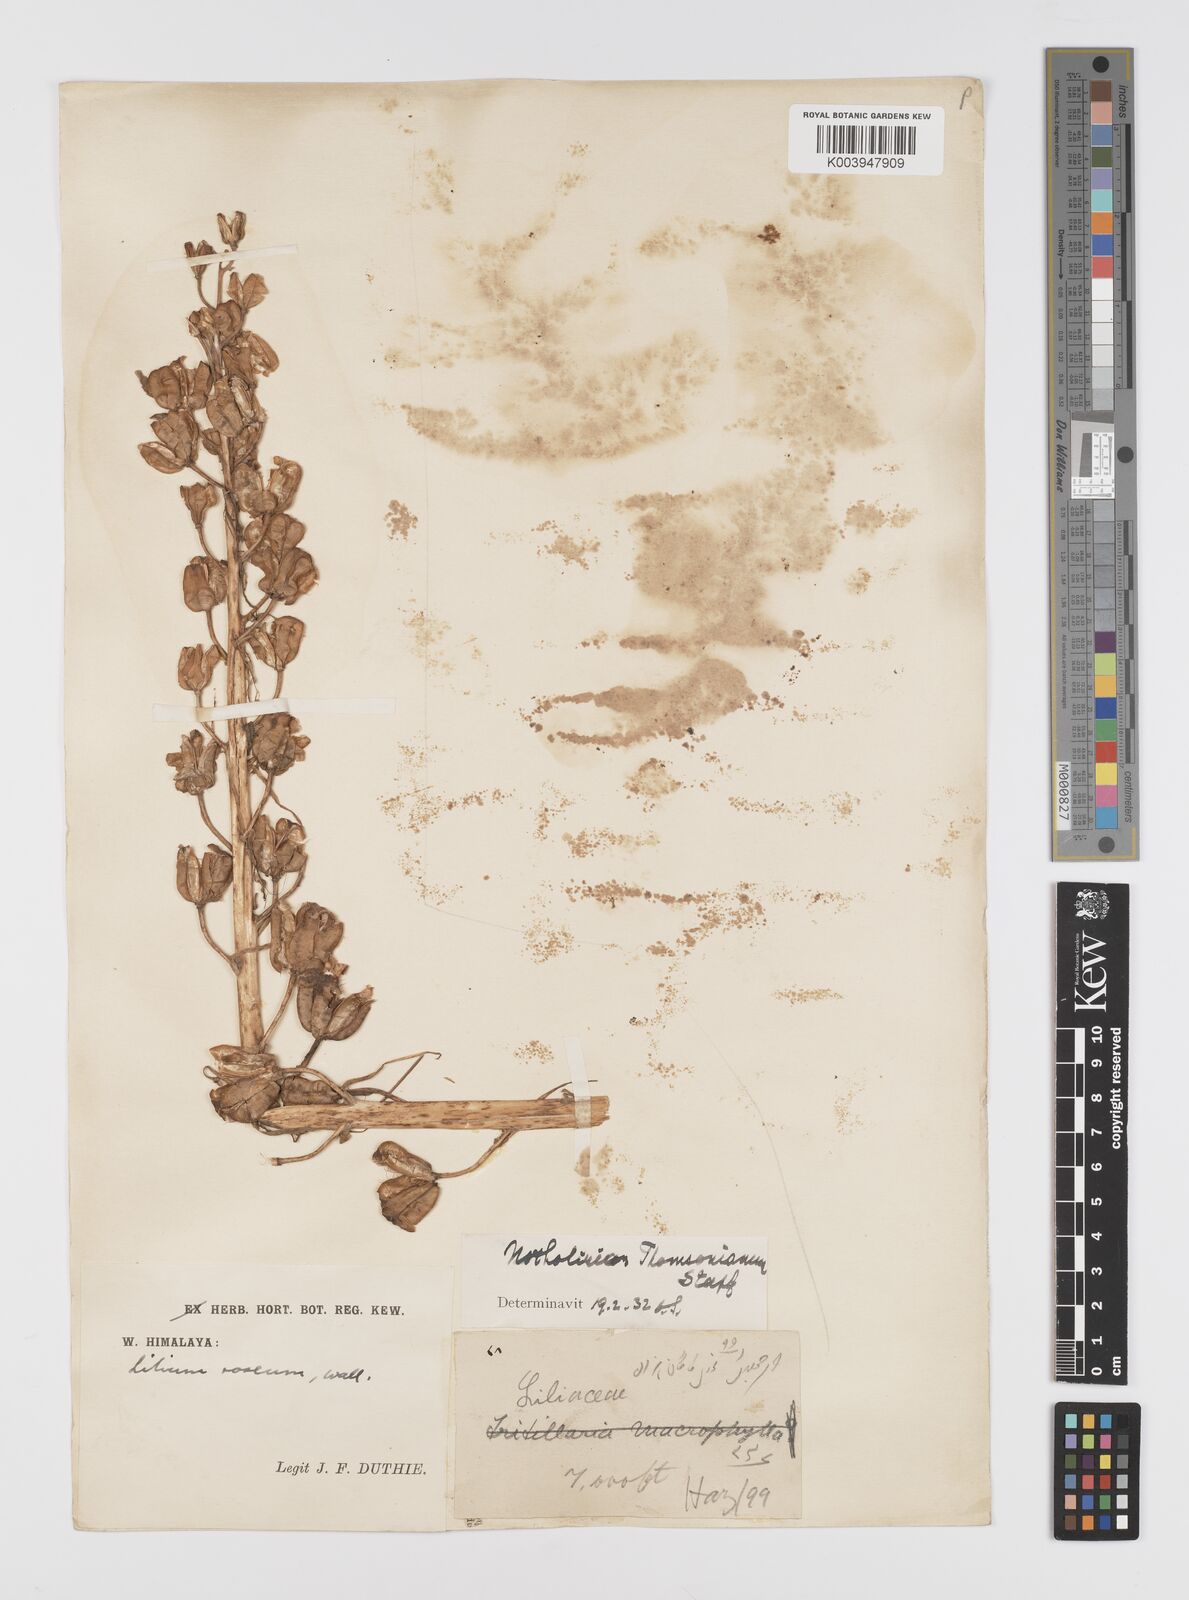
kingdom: Plantae
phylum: Tracheophyta
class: Liliopsida
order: Liliales
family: Liliaceae
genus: Notholirion
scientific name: Notholirion thomsonianum
